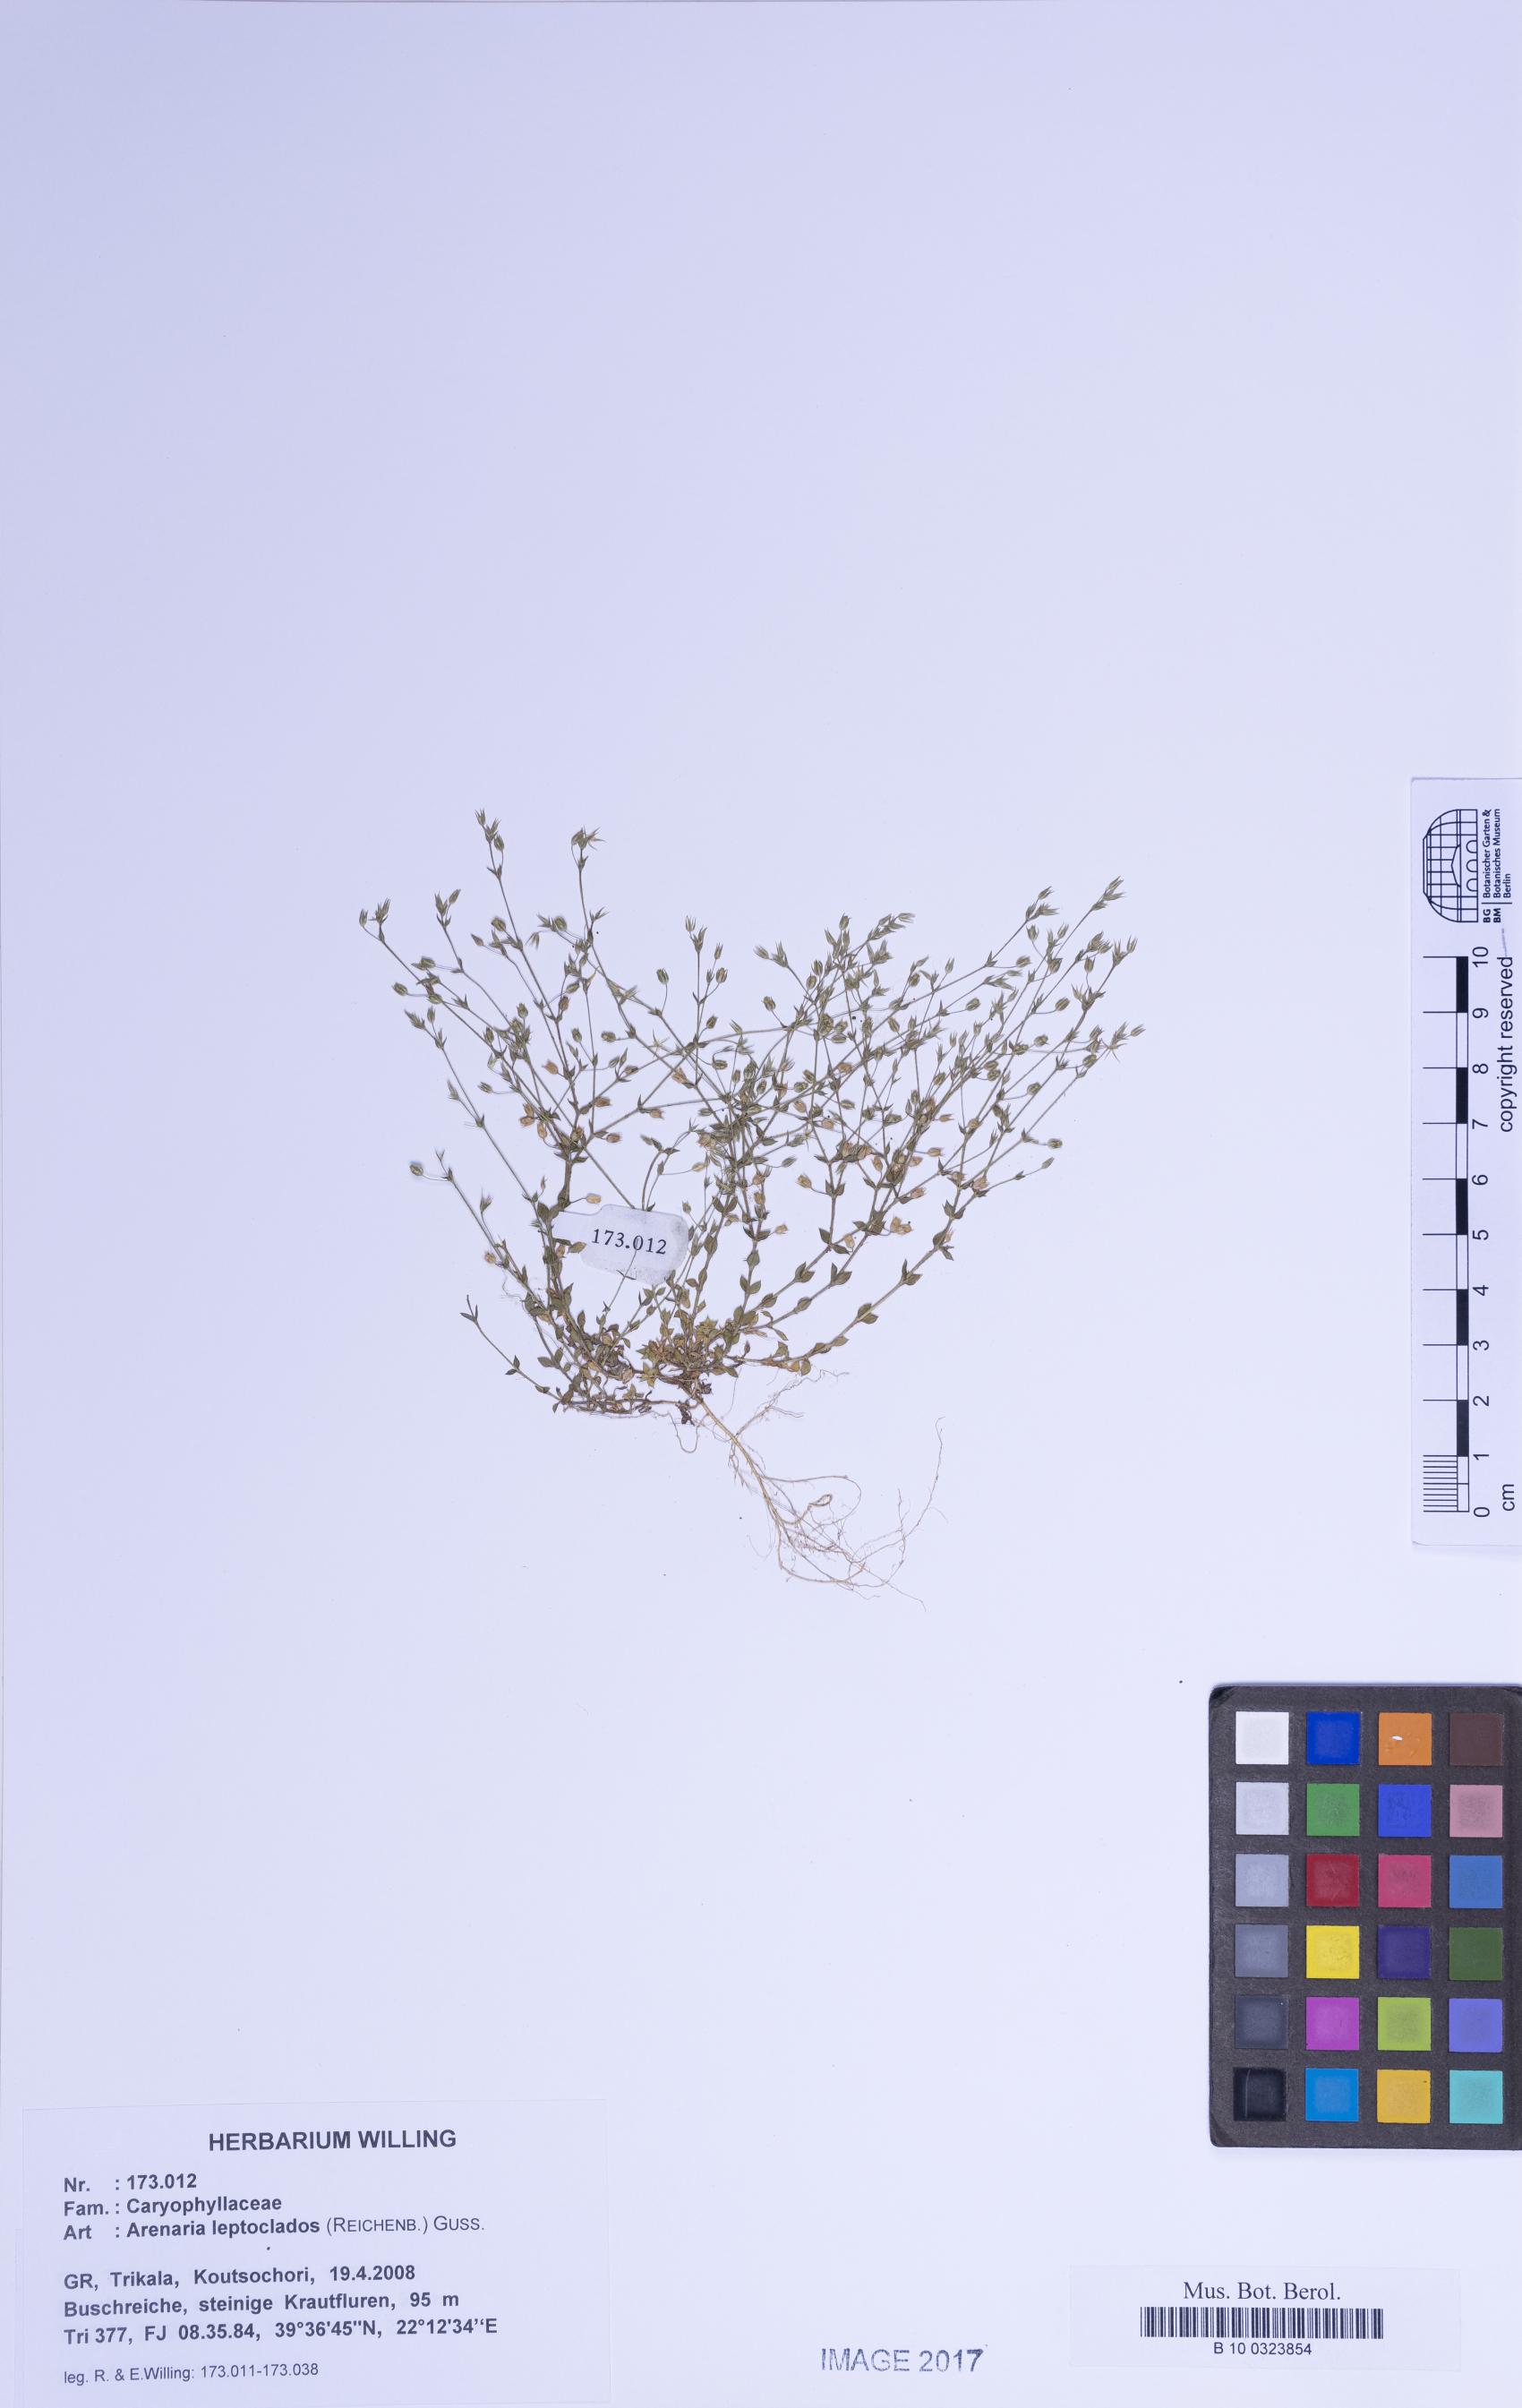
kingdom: Plantae
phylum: Tracheophyta
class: Magnoliopsida
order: Caryophyllales
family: Caryophyllaceae
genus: Arenaria
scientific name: Arenaria leptoclados
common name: Thyme-leaved sandwort
